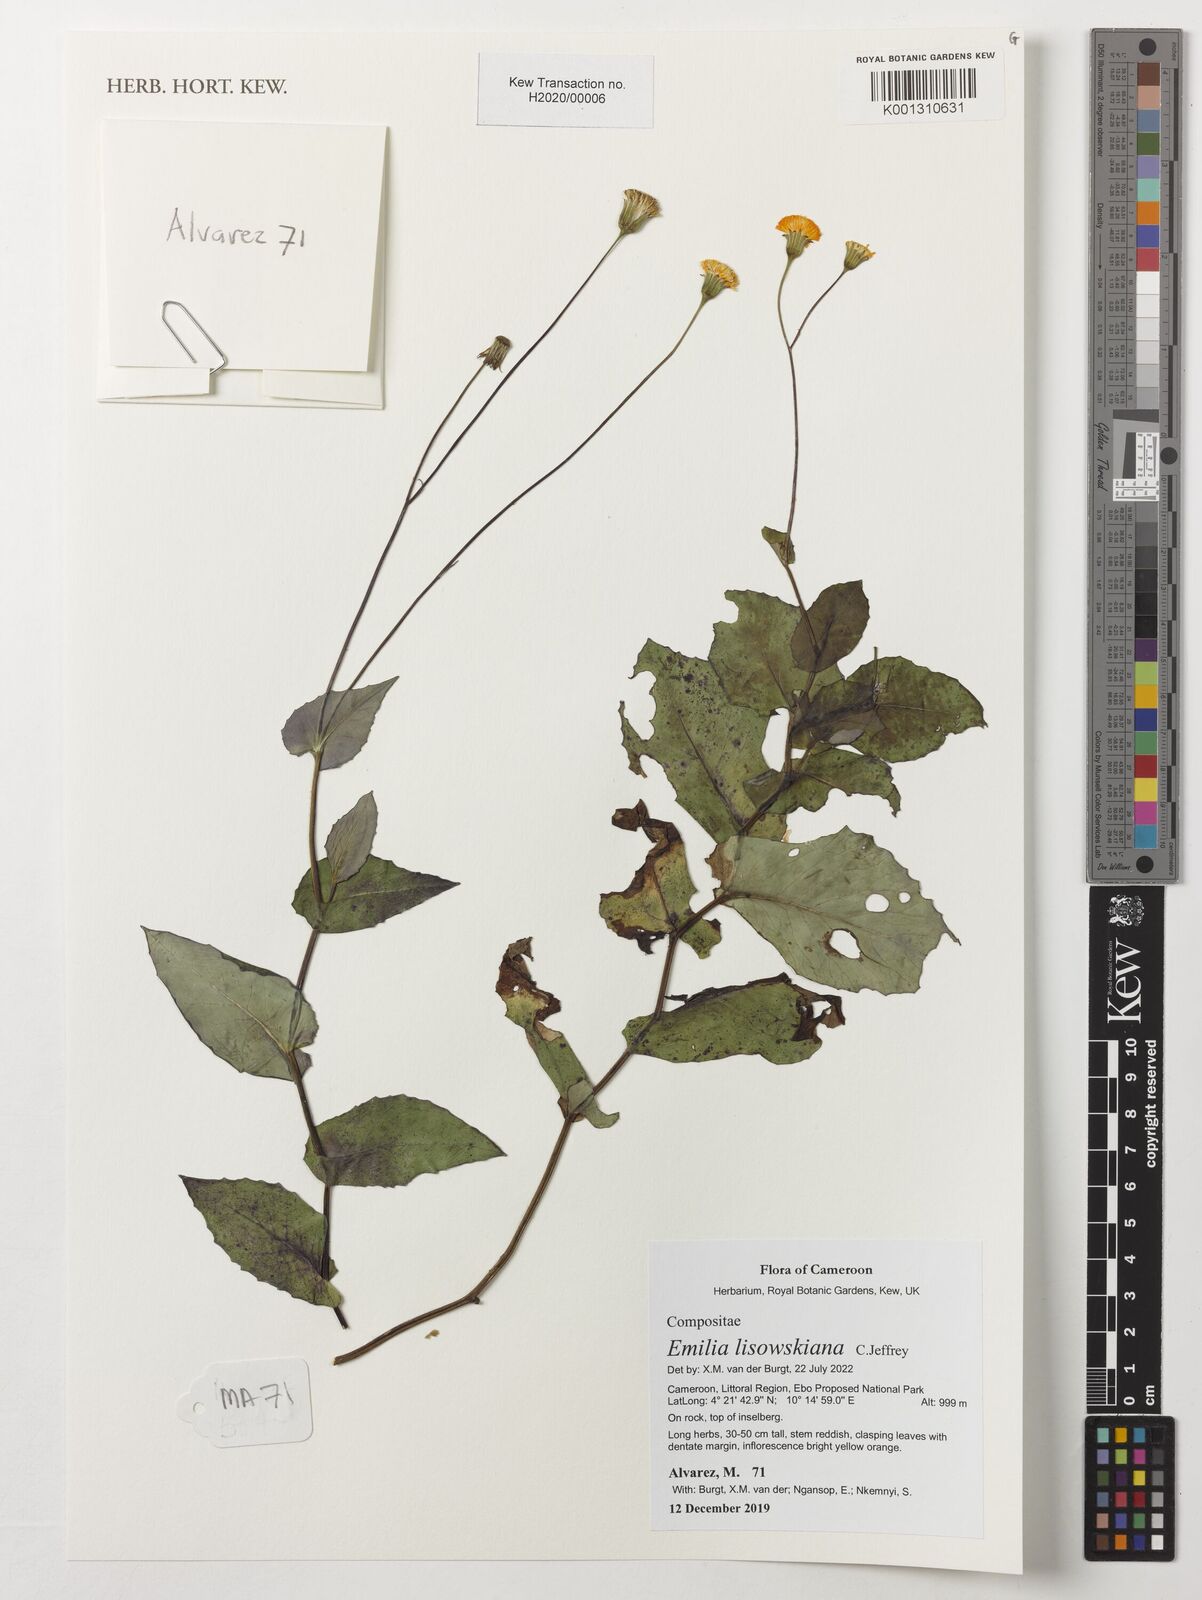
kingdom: Plantae
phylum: Tracheophyta
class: Magnoliopsida
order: Asterales
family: Asteraceae
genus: Emilia
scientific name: Emilia lisowskiana
